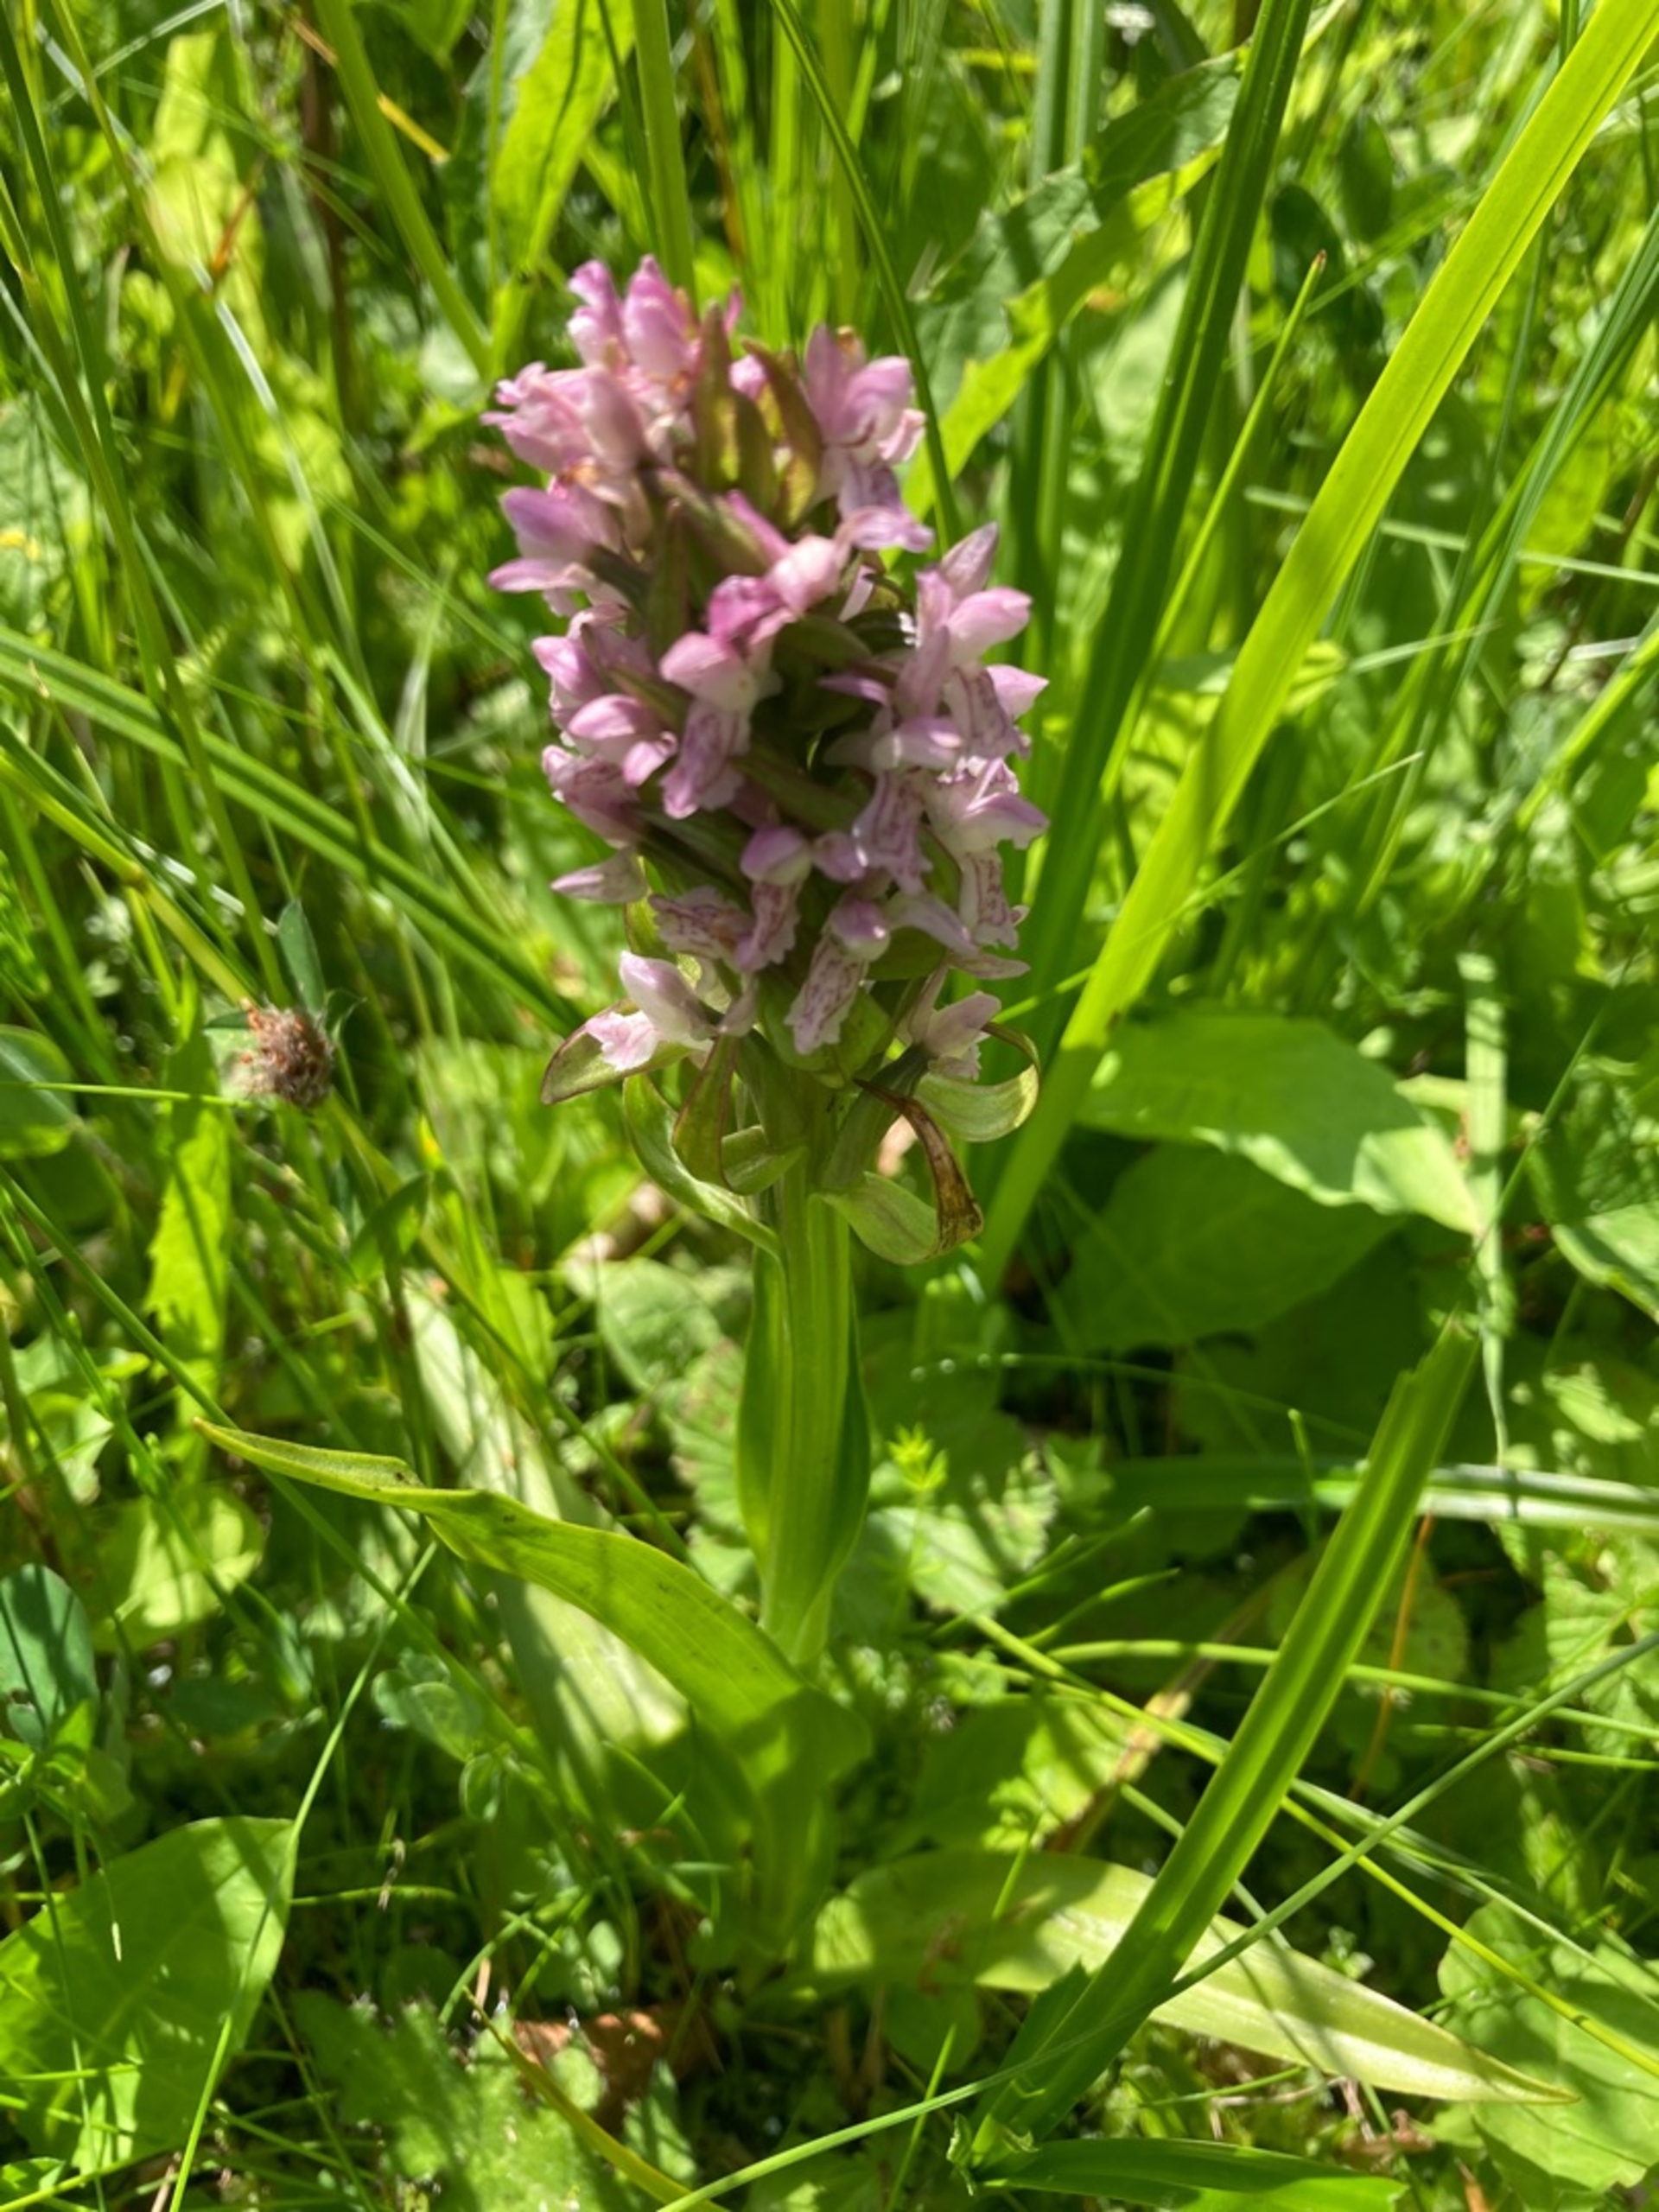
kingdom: Plantae
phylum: Tracheophyta
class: Liliopsida
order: Asparagales
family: Orchidaceae
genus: Dactylorhiza
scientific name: Dactylorhiza incarnata
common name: Kødfarvet gøgeurt (varietet)
